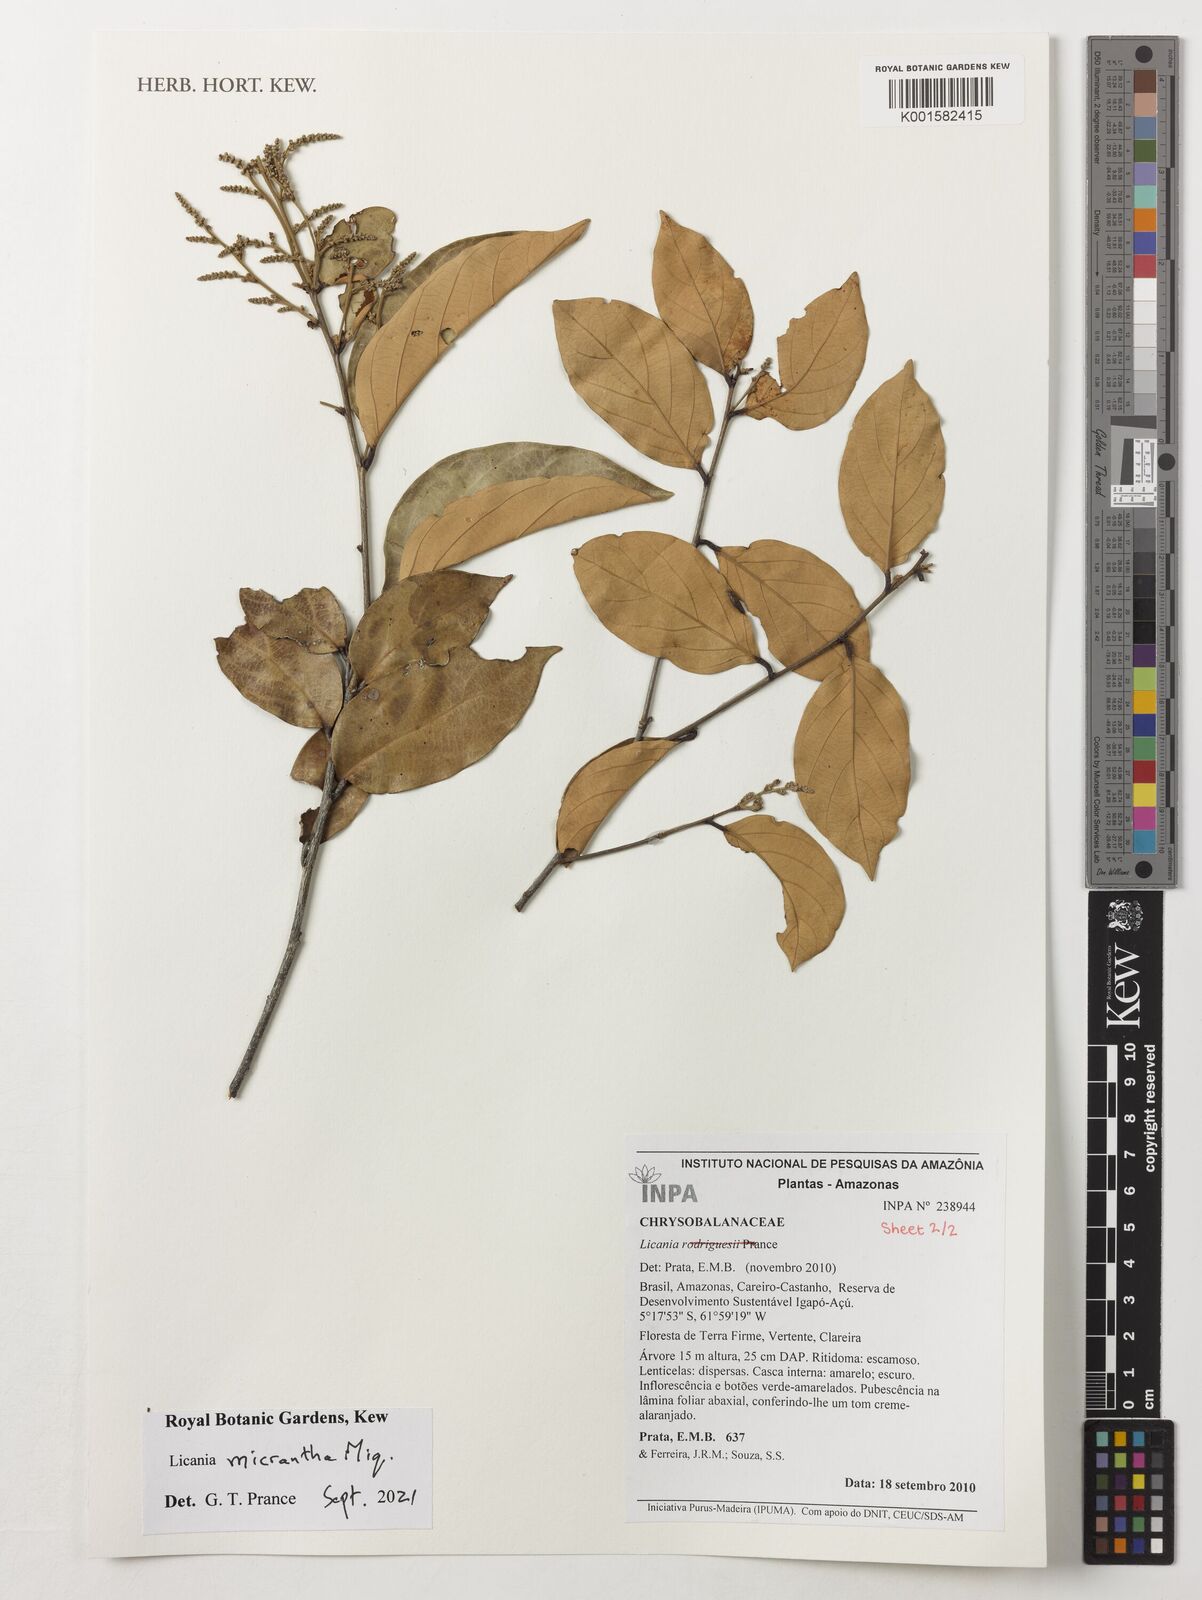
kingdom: Plantae
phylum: Tracheophyta
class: Magnoliopsida
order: Malpighiales
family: Chrysobalanaceae
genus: Licania
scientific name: Licania micrantha
